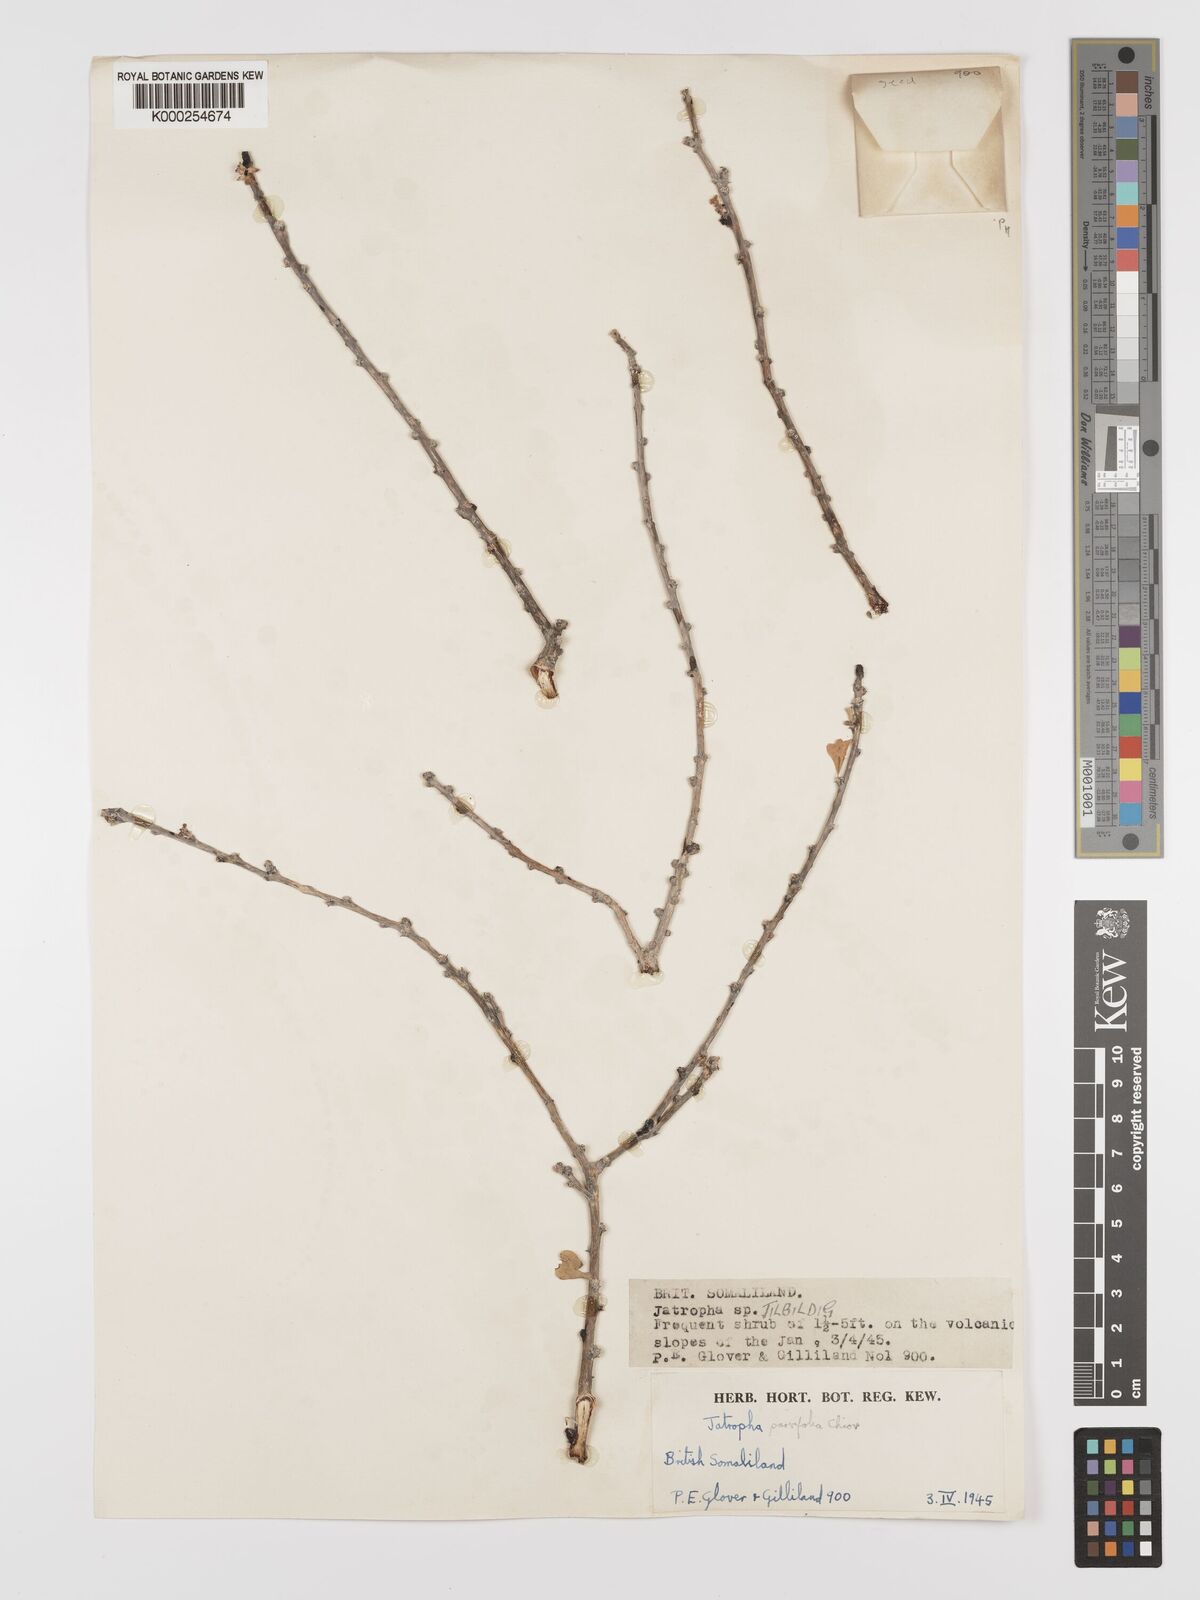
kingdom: Plantae
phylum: Tracheophyta
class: Magnoliopsida
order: Malpighiales
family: Euphorbiaceae
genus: Jatropha
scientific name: Jatropha rivae
